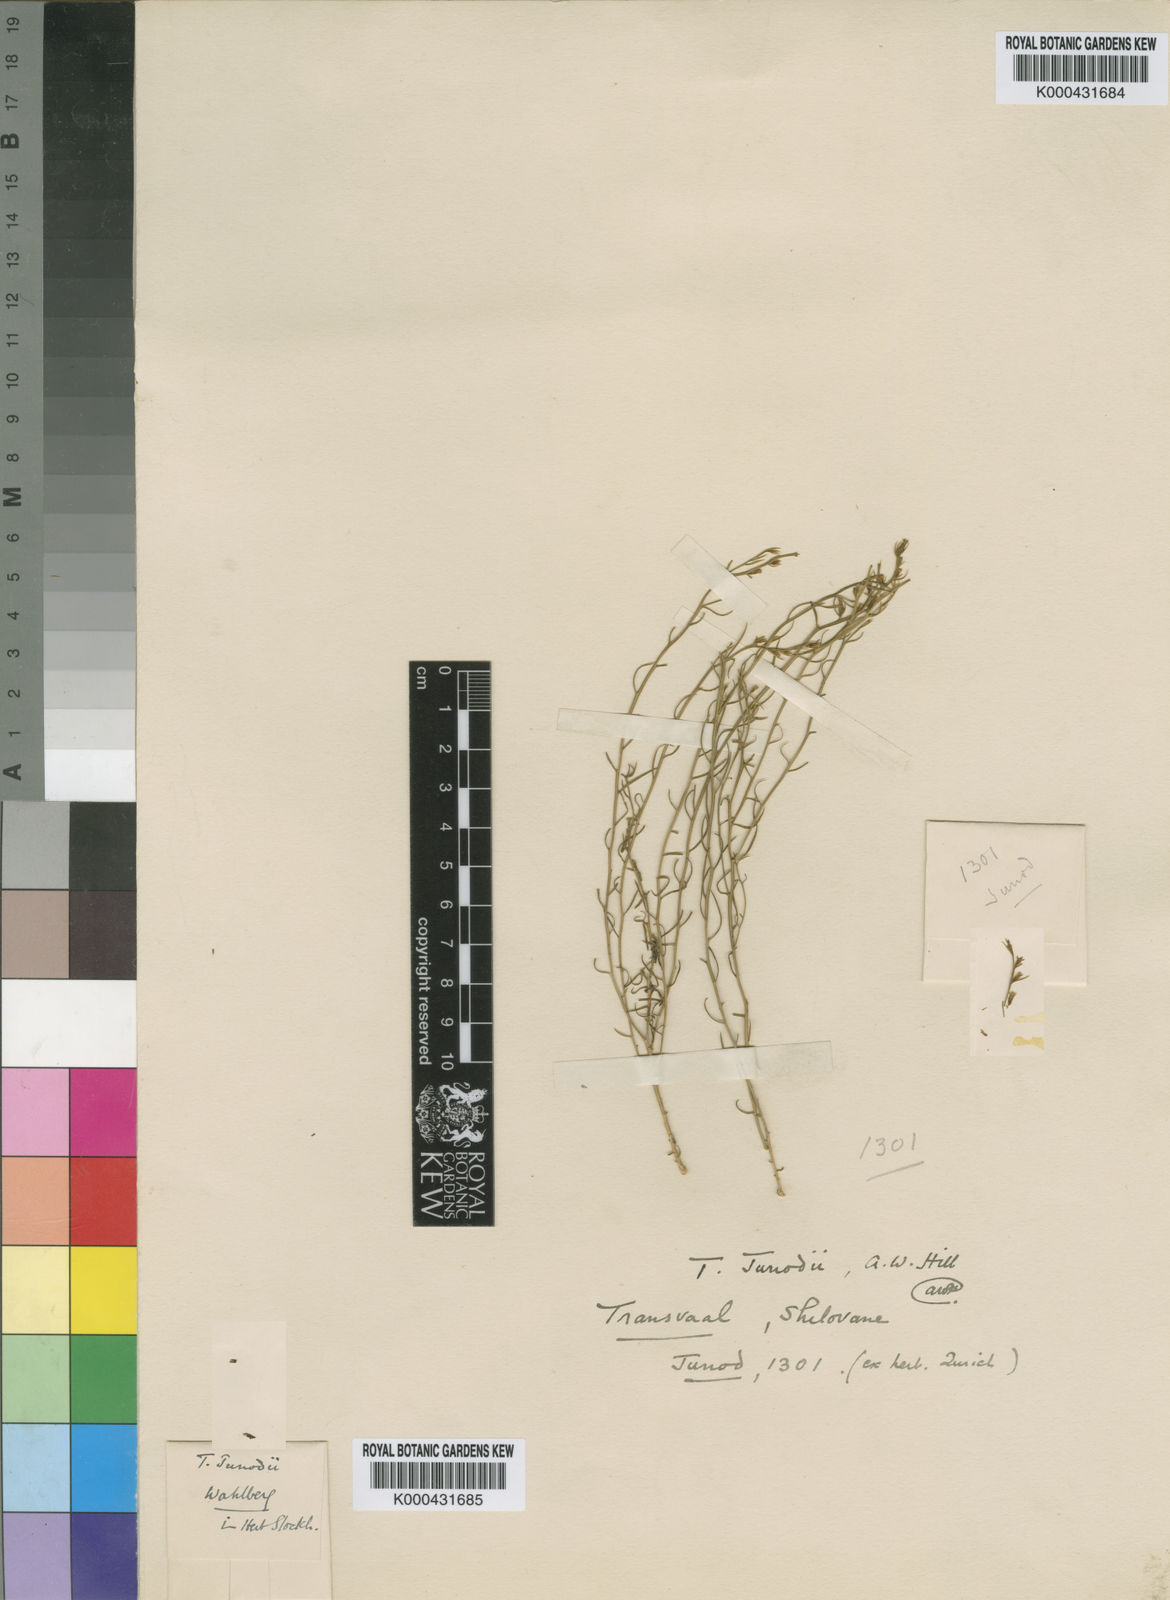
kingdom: Plantae
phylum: Tracheophyta
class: Magnoliopsida
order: Santalales
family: Thesiaceae
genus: Thesium
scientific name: Thesium junodii
